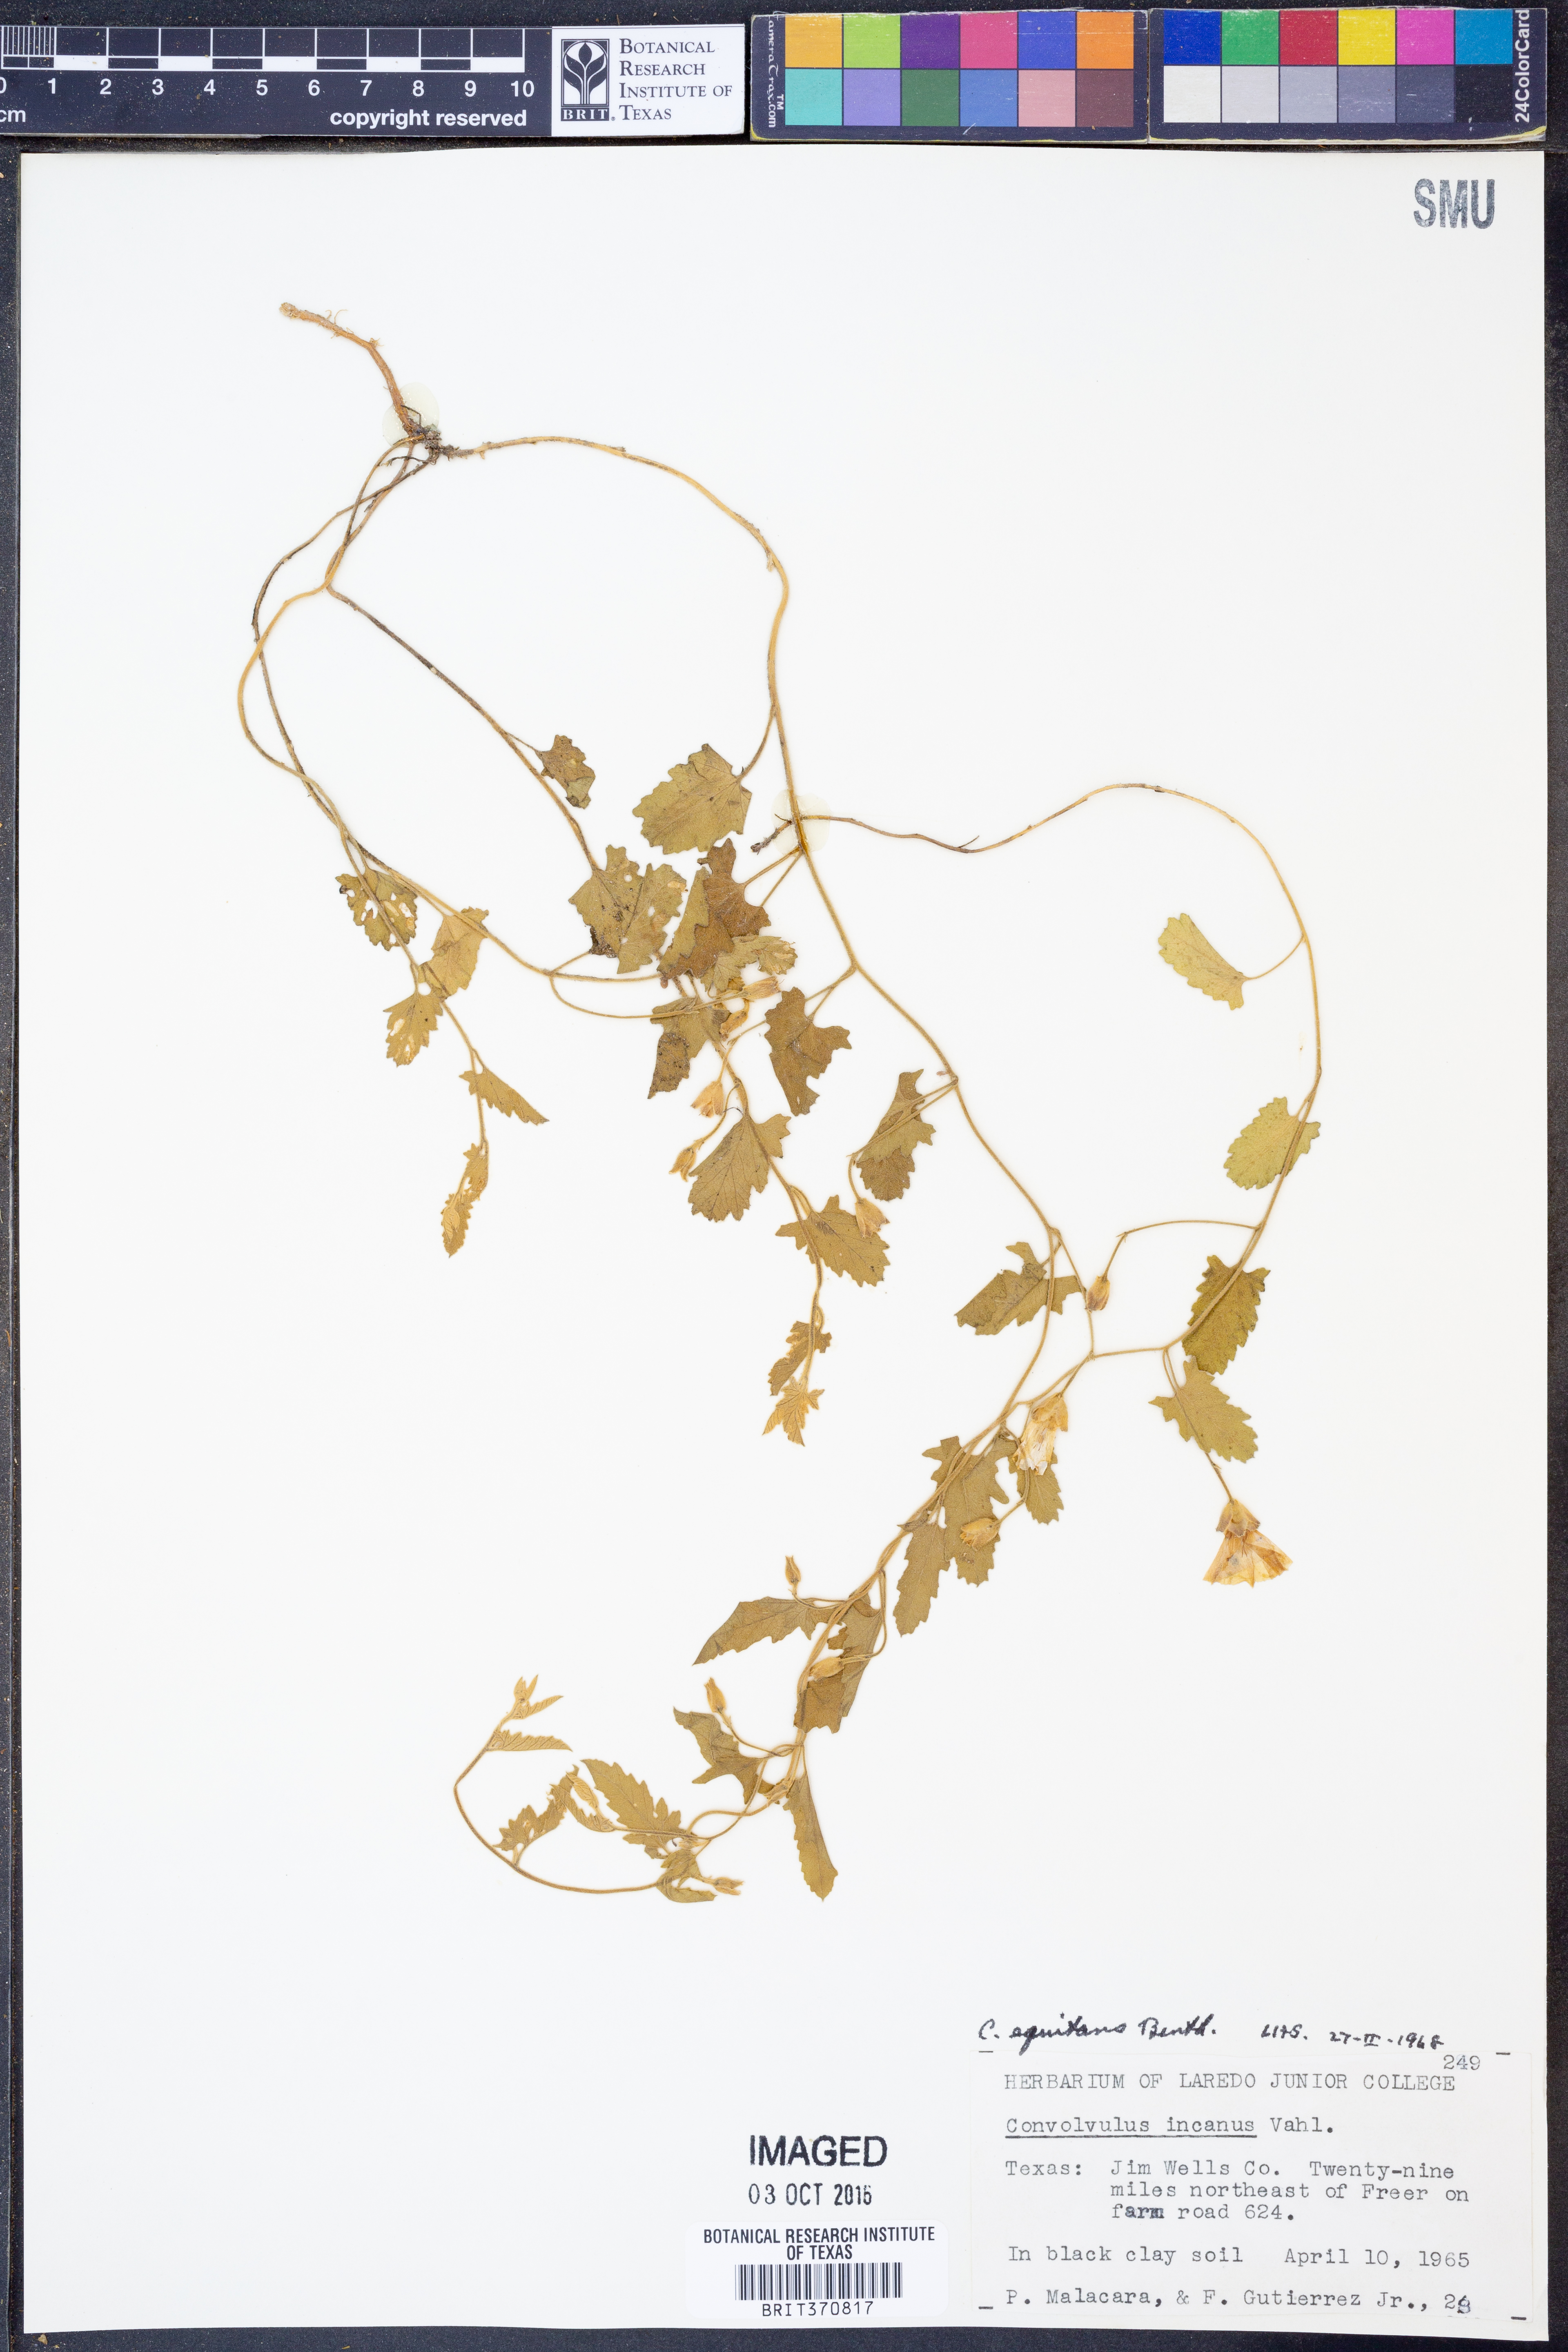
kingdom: Plantae
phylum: Tracheophyta
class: Magnoliopsida
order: Solanales
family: Convolvulaceae
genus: Convolvulus
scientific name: Convolvulus equitans
